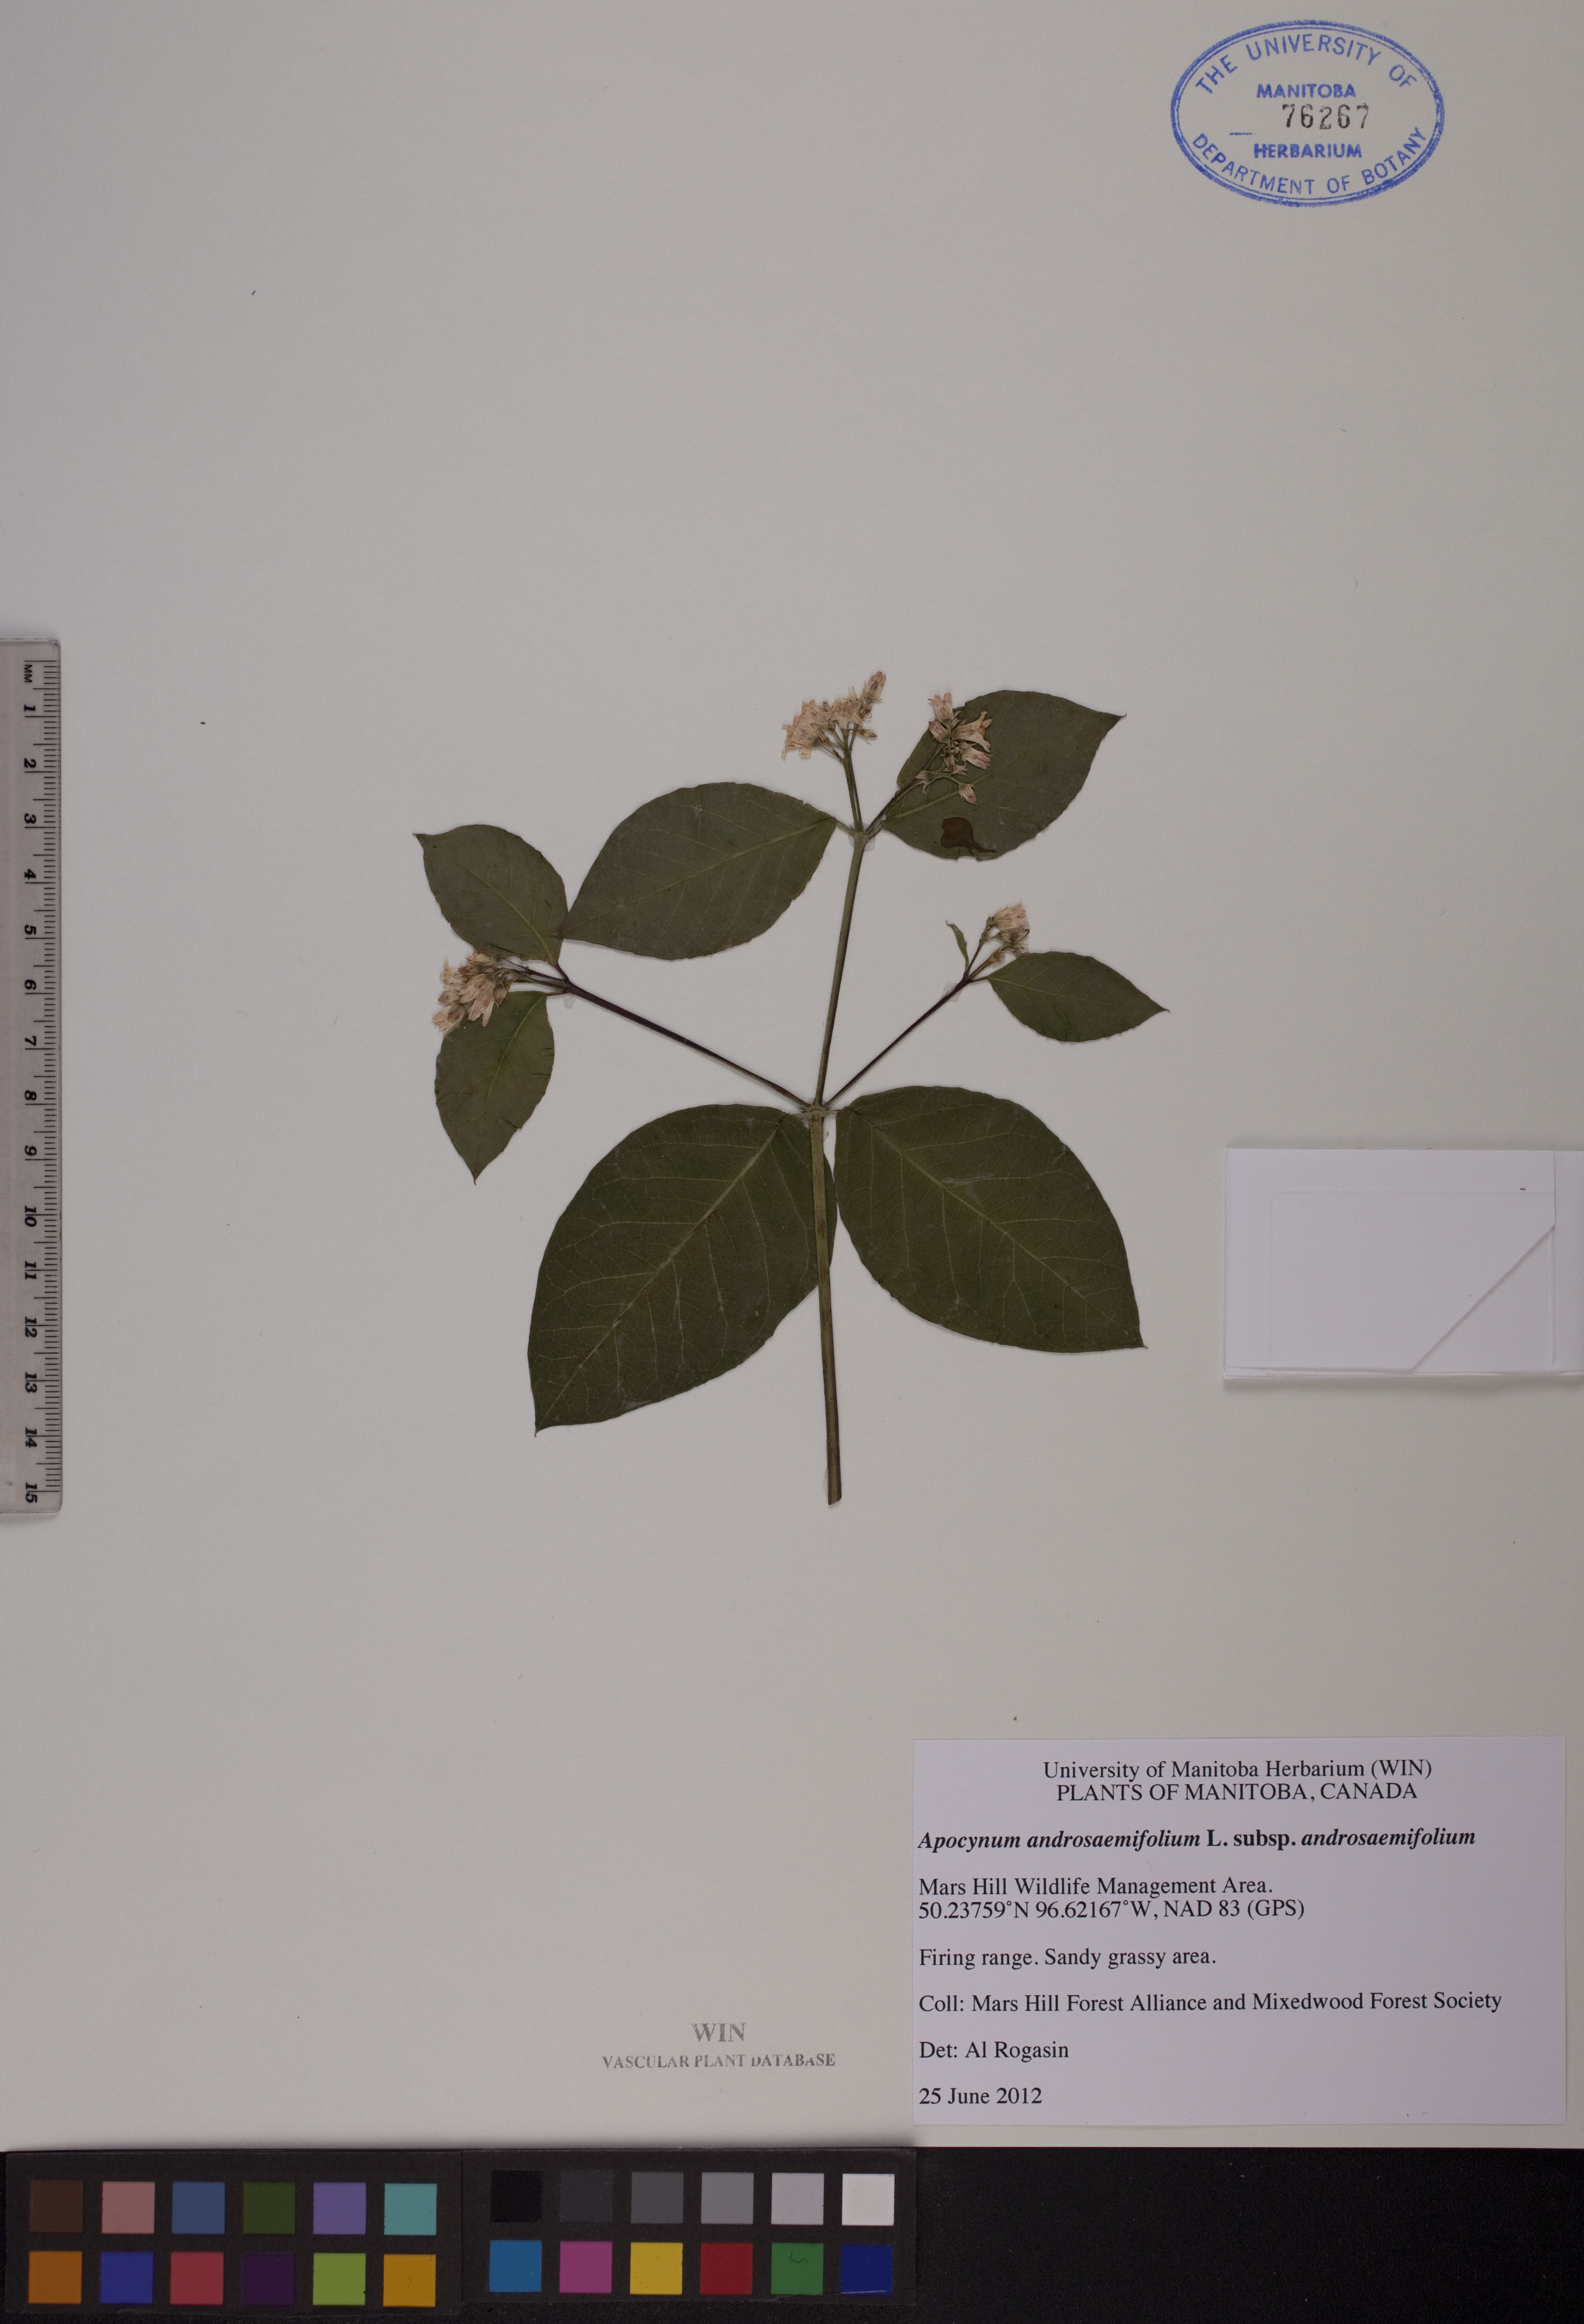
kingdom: Plantae
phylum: Tracheophyta
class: Magnoliopsida
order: Gentianales
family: Apocynaceae
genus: Apocynum
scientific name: Apocynum androsaemifolium
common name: Spreading dogbane
